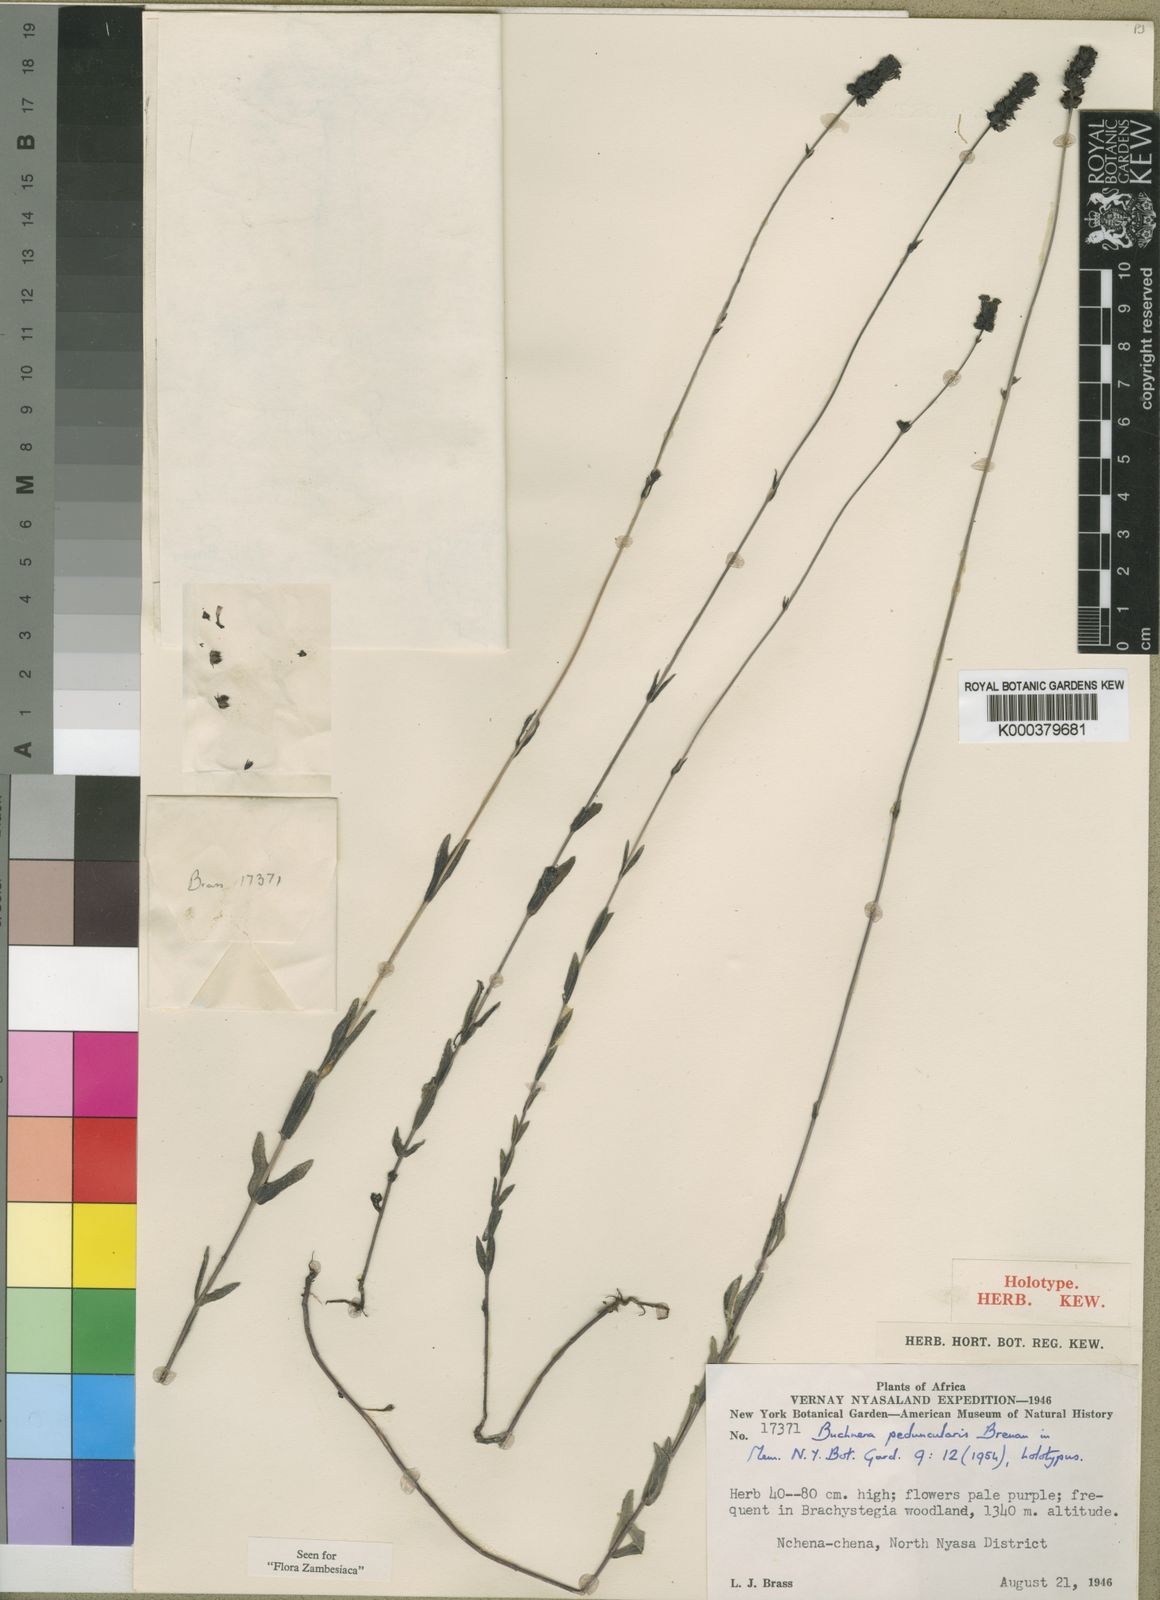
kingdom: Plantae
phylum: Tracheophyta
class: Magnoliopsida
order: Lamiales
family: Orobanchaceae
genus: Buchnera
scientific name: Buchnera peduncularis
